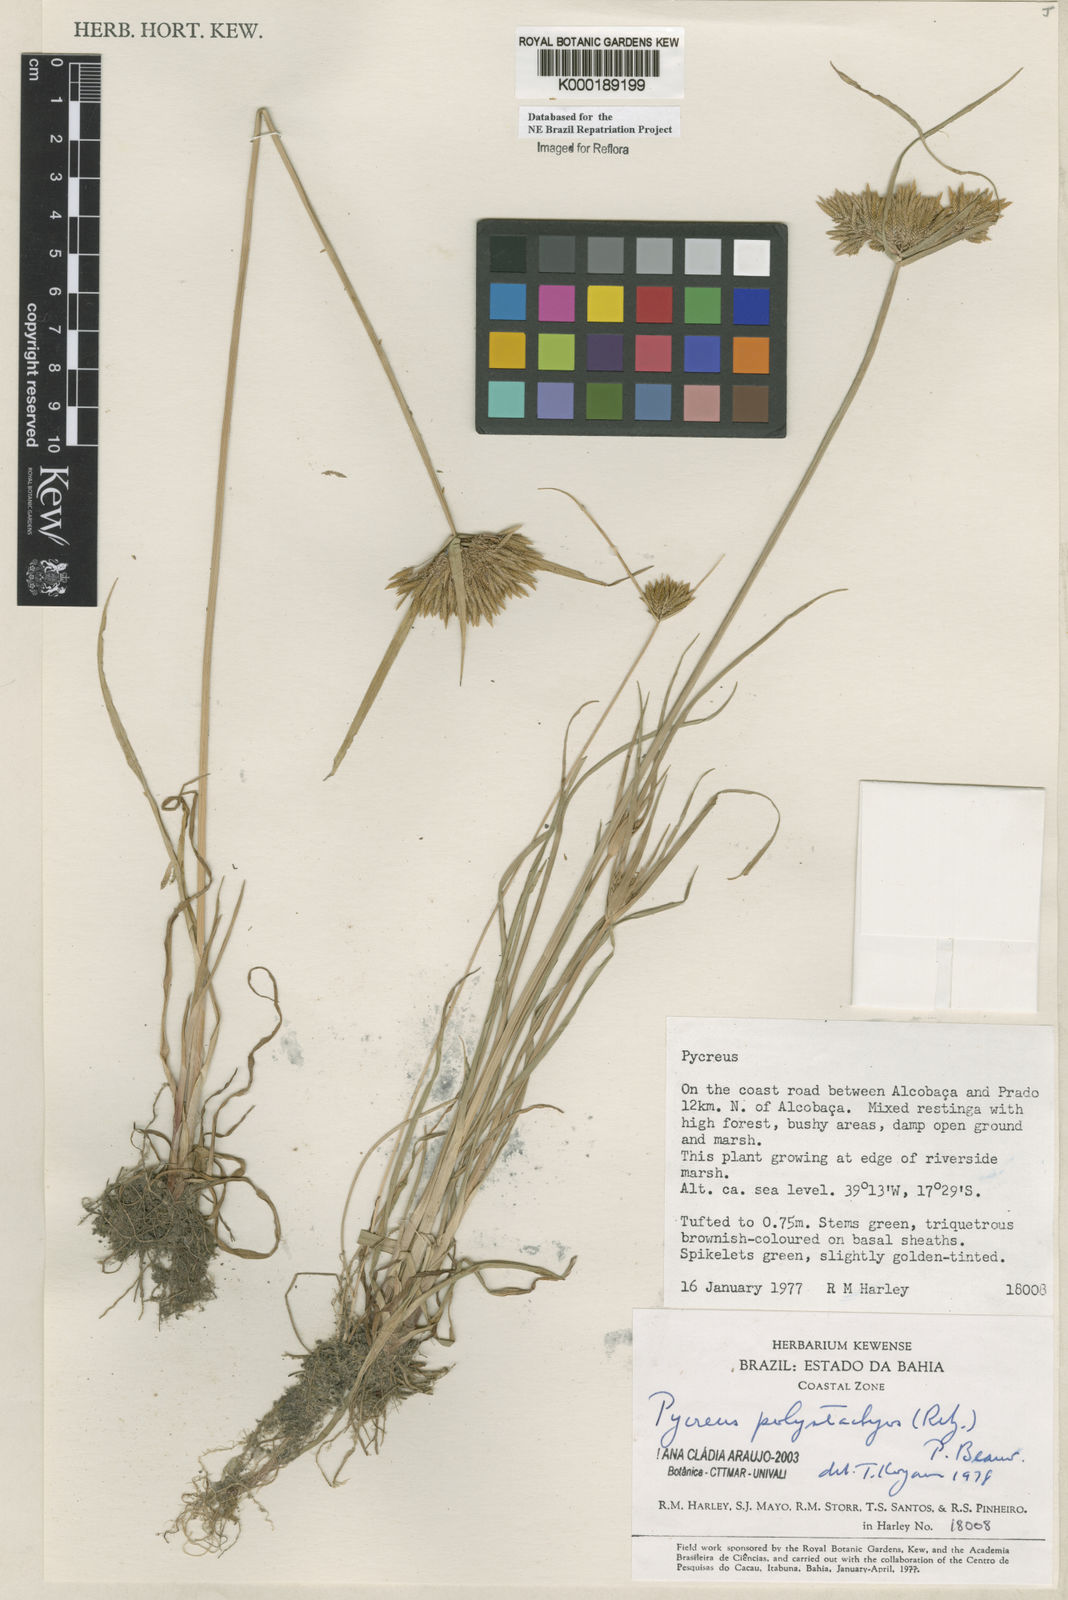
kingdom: Plantae
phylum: Tracheophyta
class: Liliopsida
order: Poales
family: Cyperaceae
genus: Cyperus
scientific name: Cyperus polystachyos
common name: Bunchy flat sedge
